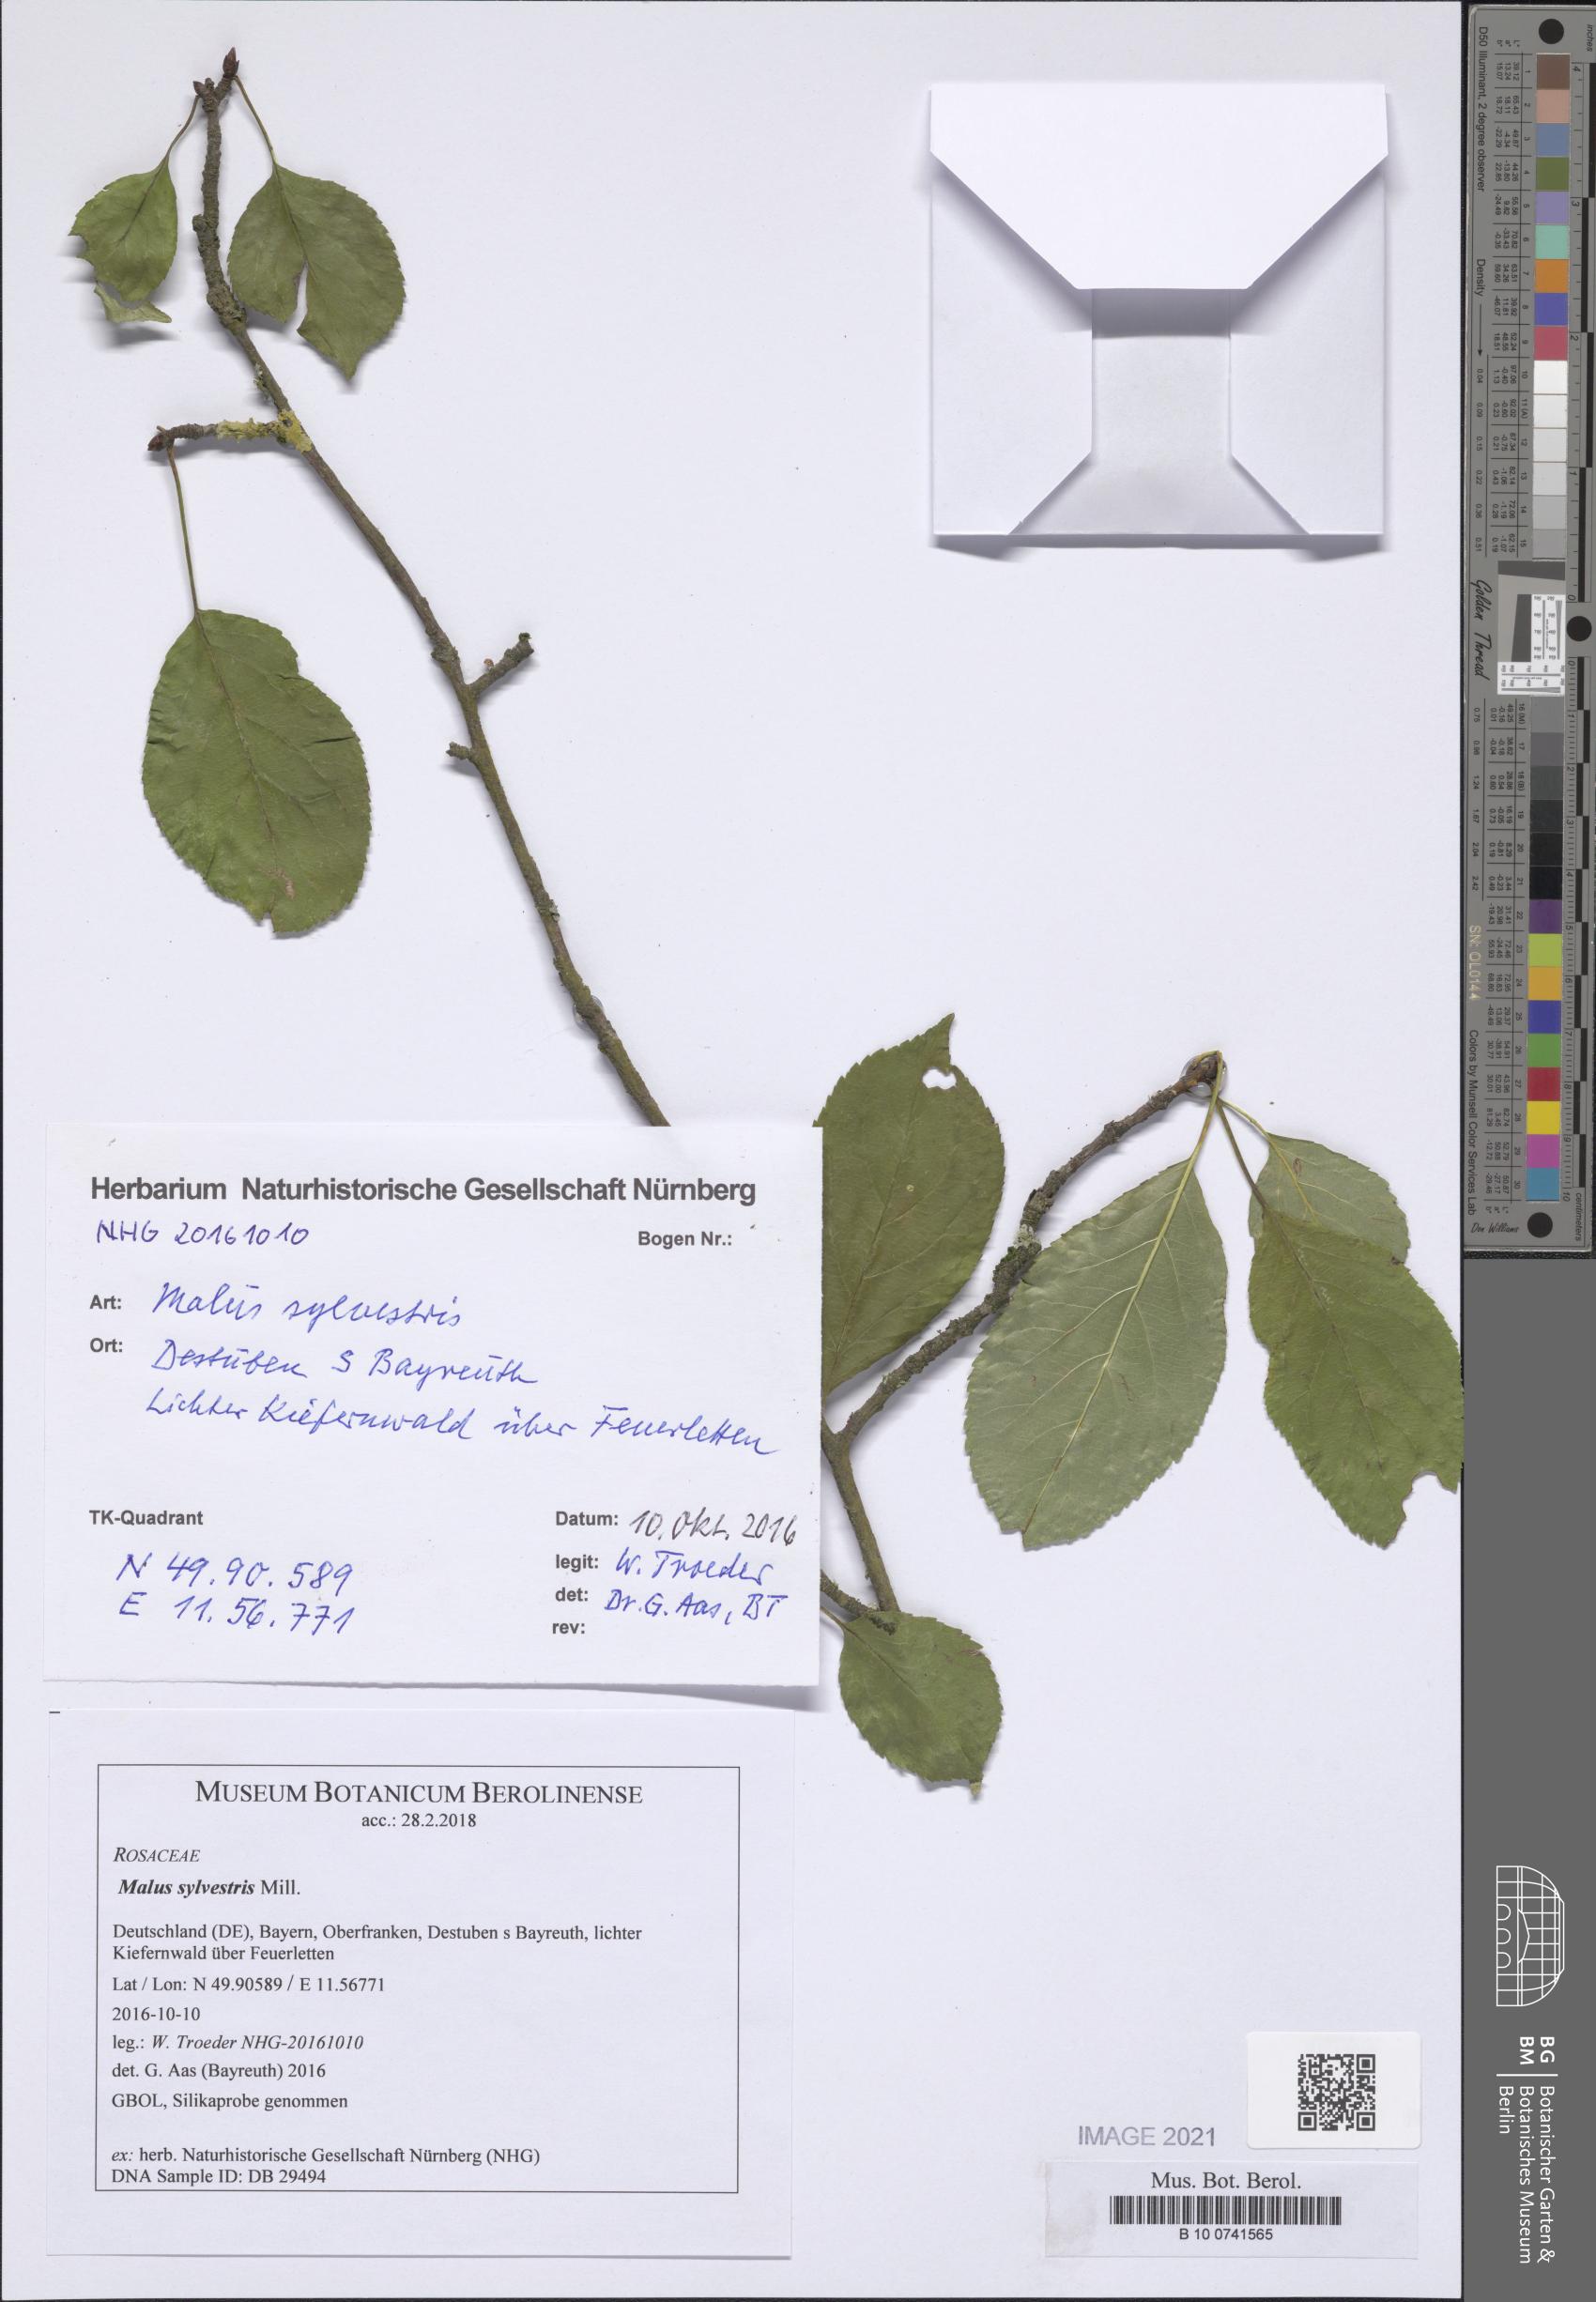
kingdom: Plantae
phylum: Tracheophyta
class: Magnoliopsida
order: Rosales
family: Rosaceae
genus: Malus
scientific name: Malus sylvestris
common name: Crab apple
